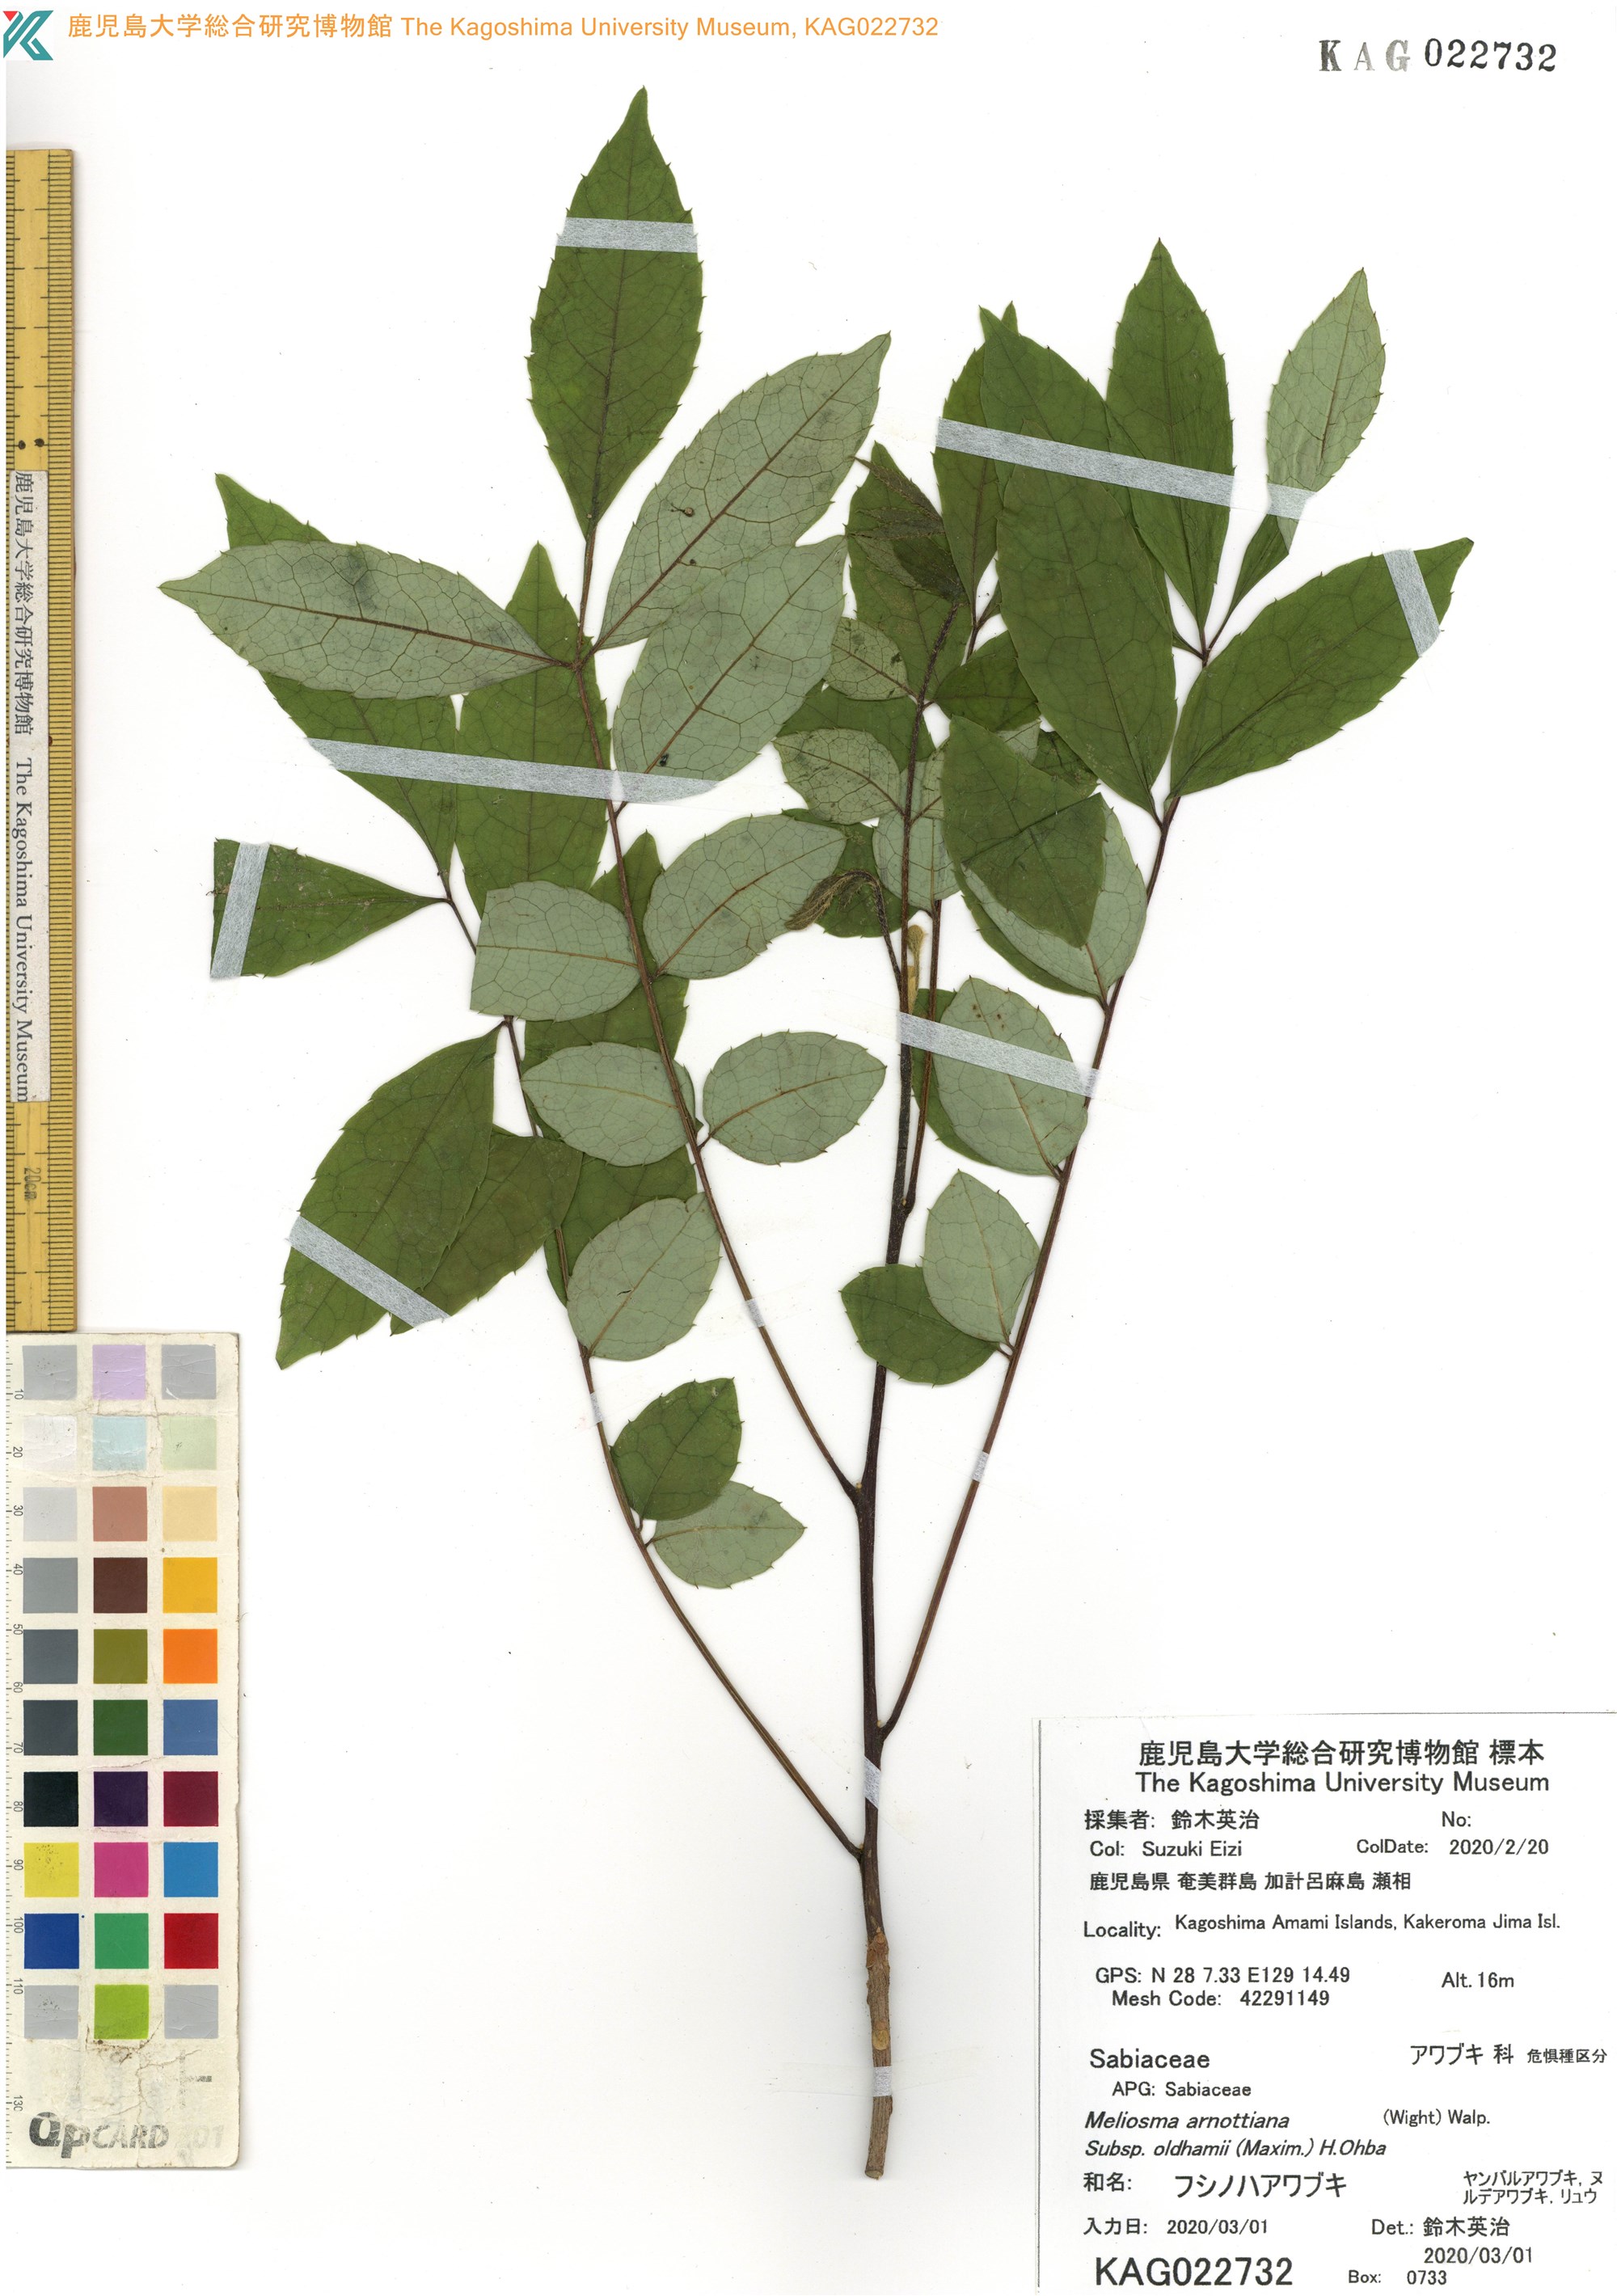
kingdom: Plantae
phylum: Tracheophyta
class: Magnoliopsida
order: Proteales
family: Sabiaceae
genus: Meliosma
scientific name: Meliosma oldhamii
